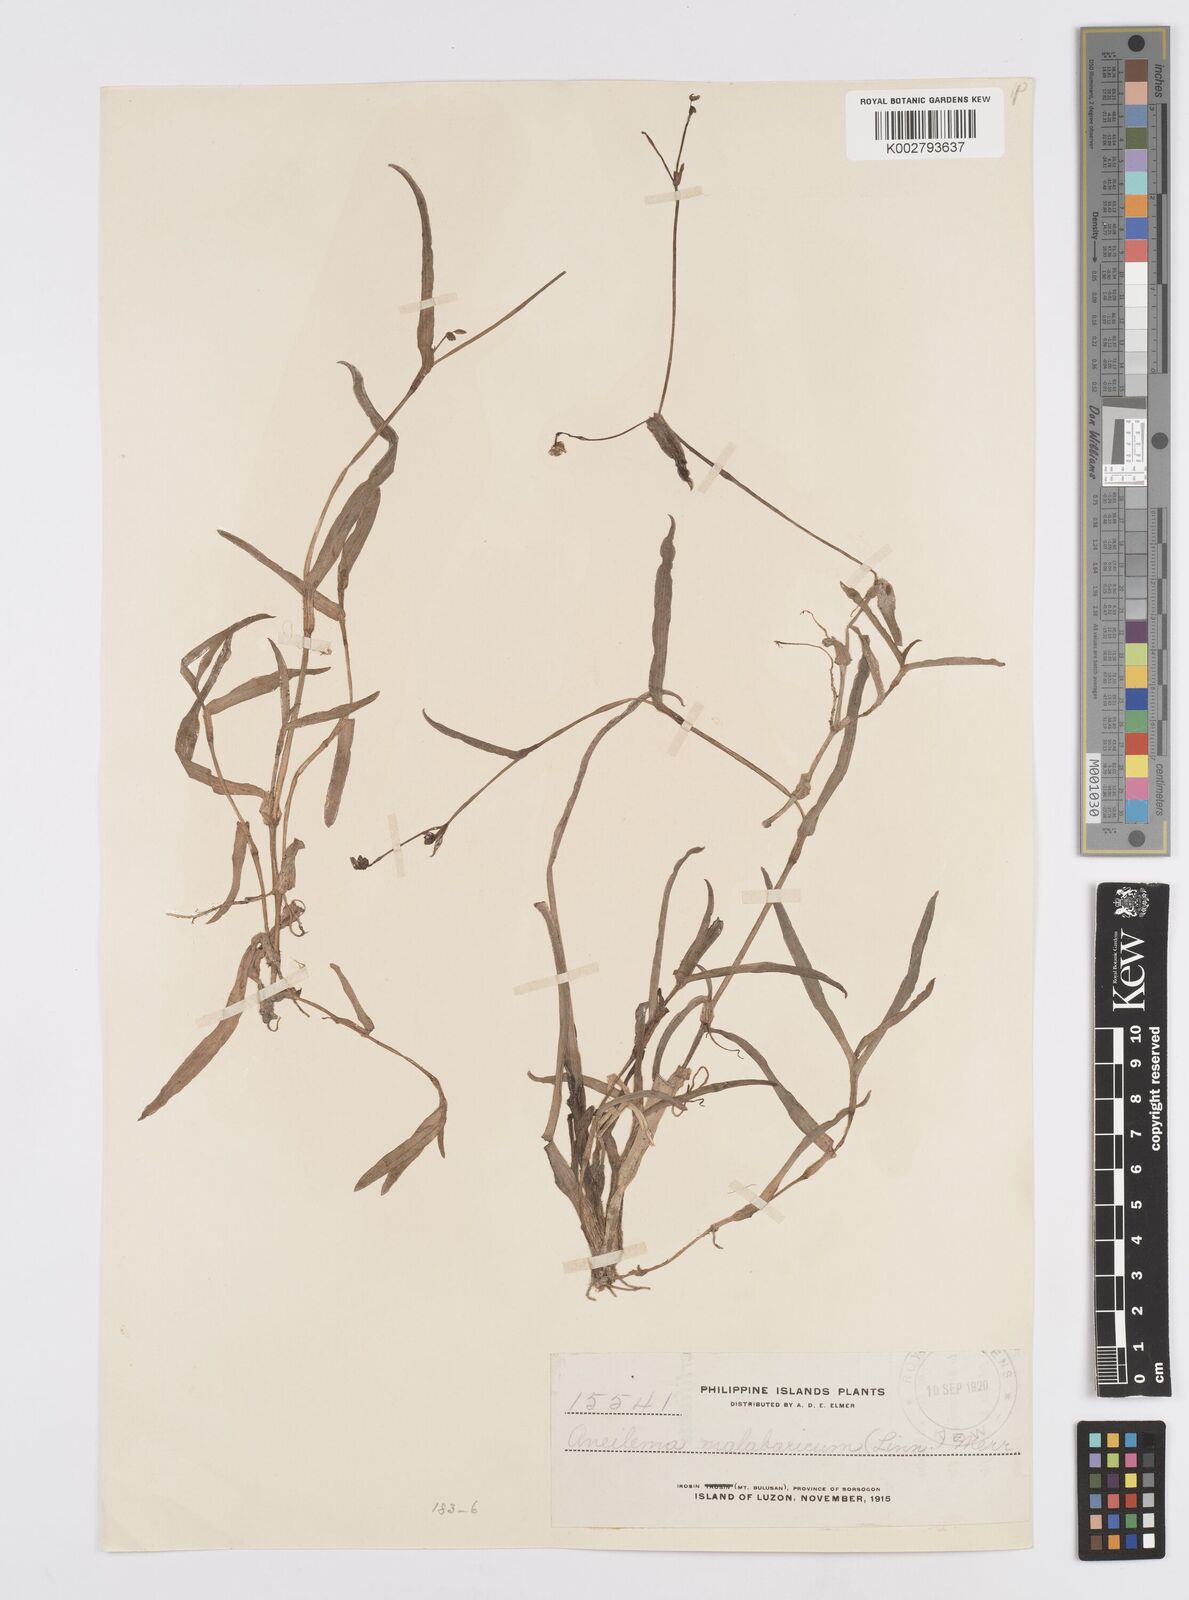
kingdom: Plantae
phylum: Tracheophyta
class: Liliopsida
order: Commelinales
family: Commelinaceae
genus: Murdannia
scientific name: Murdannia nudiflora
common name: Nakedstem dewflower
